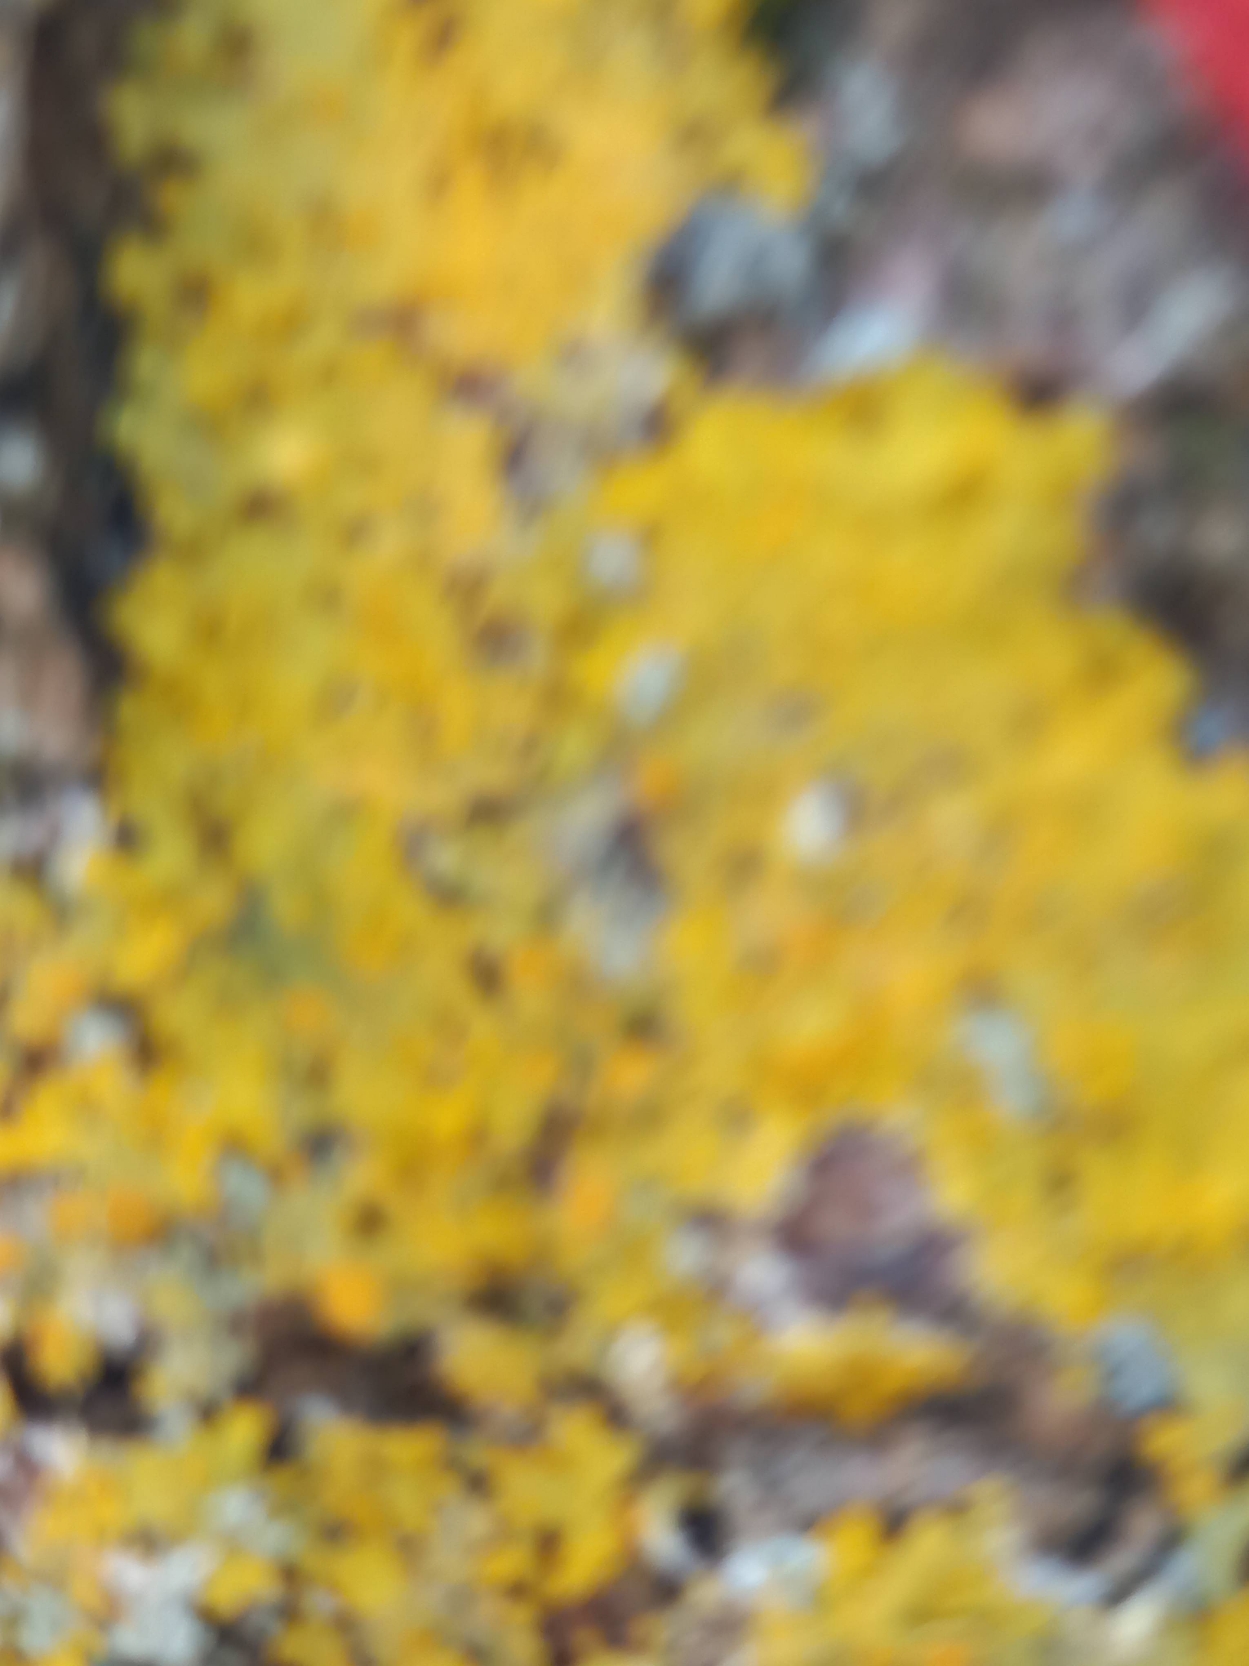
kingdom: Fungi
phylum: Ascomycota
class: Lecanoromycetes
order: Teloschistales
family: Teloschistaceae
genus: Xanthoria
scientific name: Xanthoria parietina
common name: Almindelig væggelav
